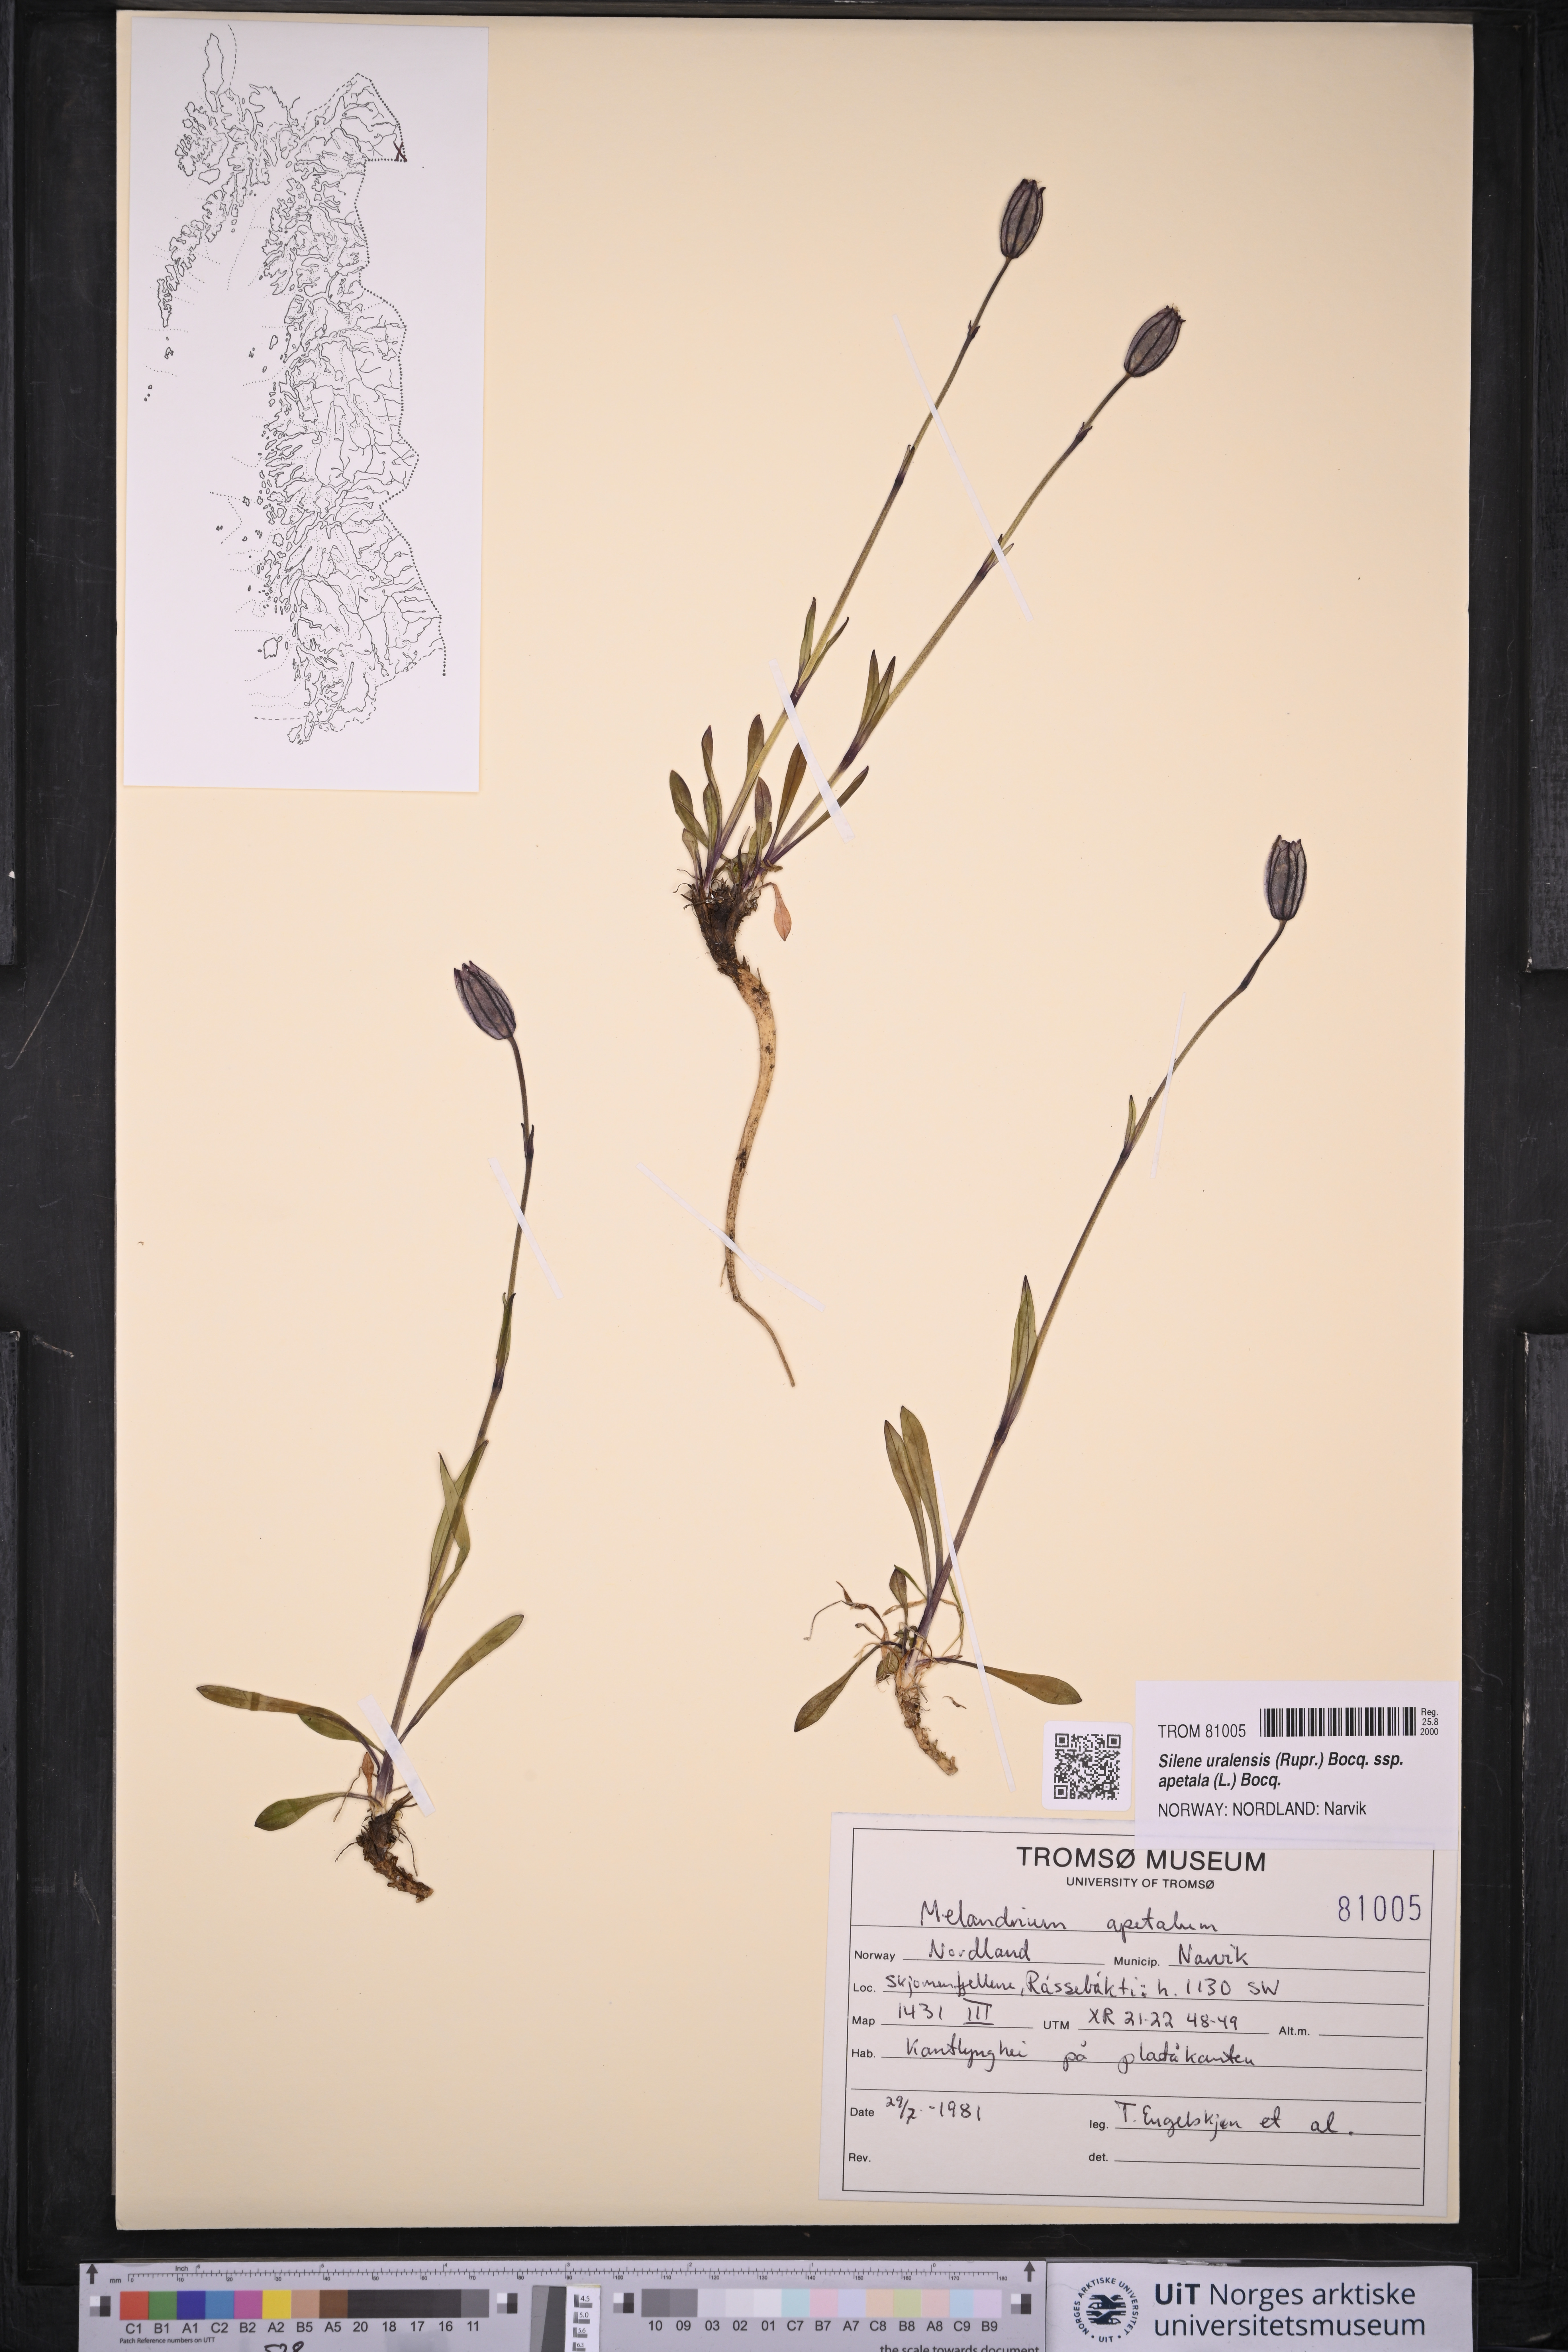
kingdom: Plantae
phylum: Tracheophyta
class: Magnoliopsida
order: Caryophyllales
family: Caryophyllaceae
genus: Silene
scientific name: Silene wahlbergella
